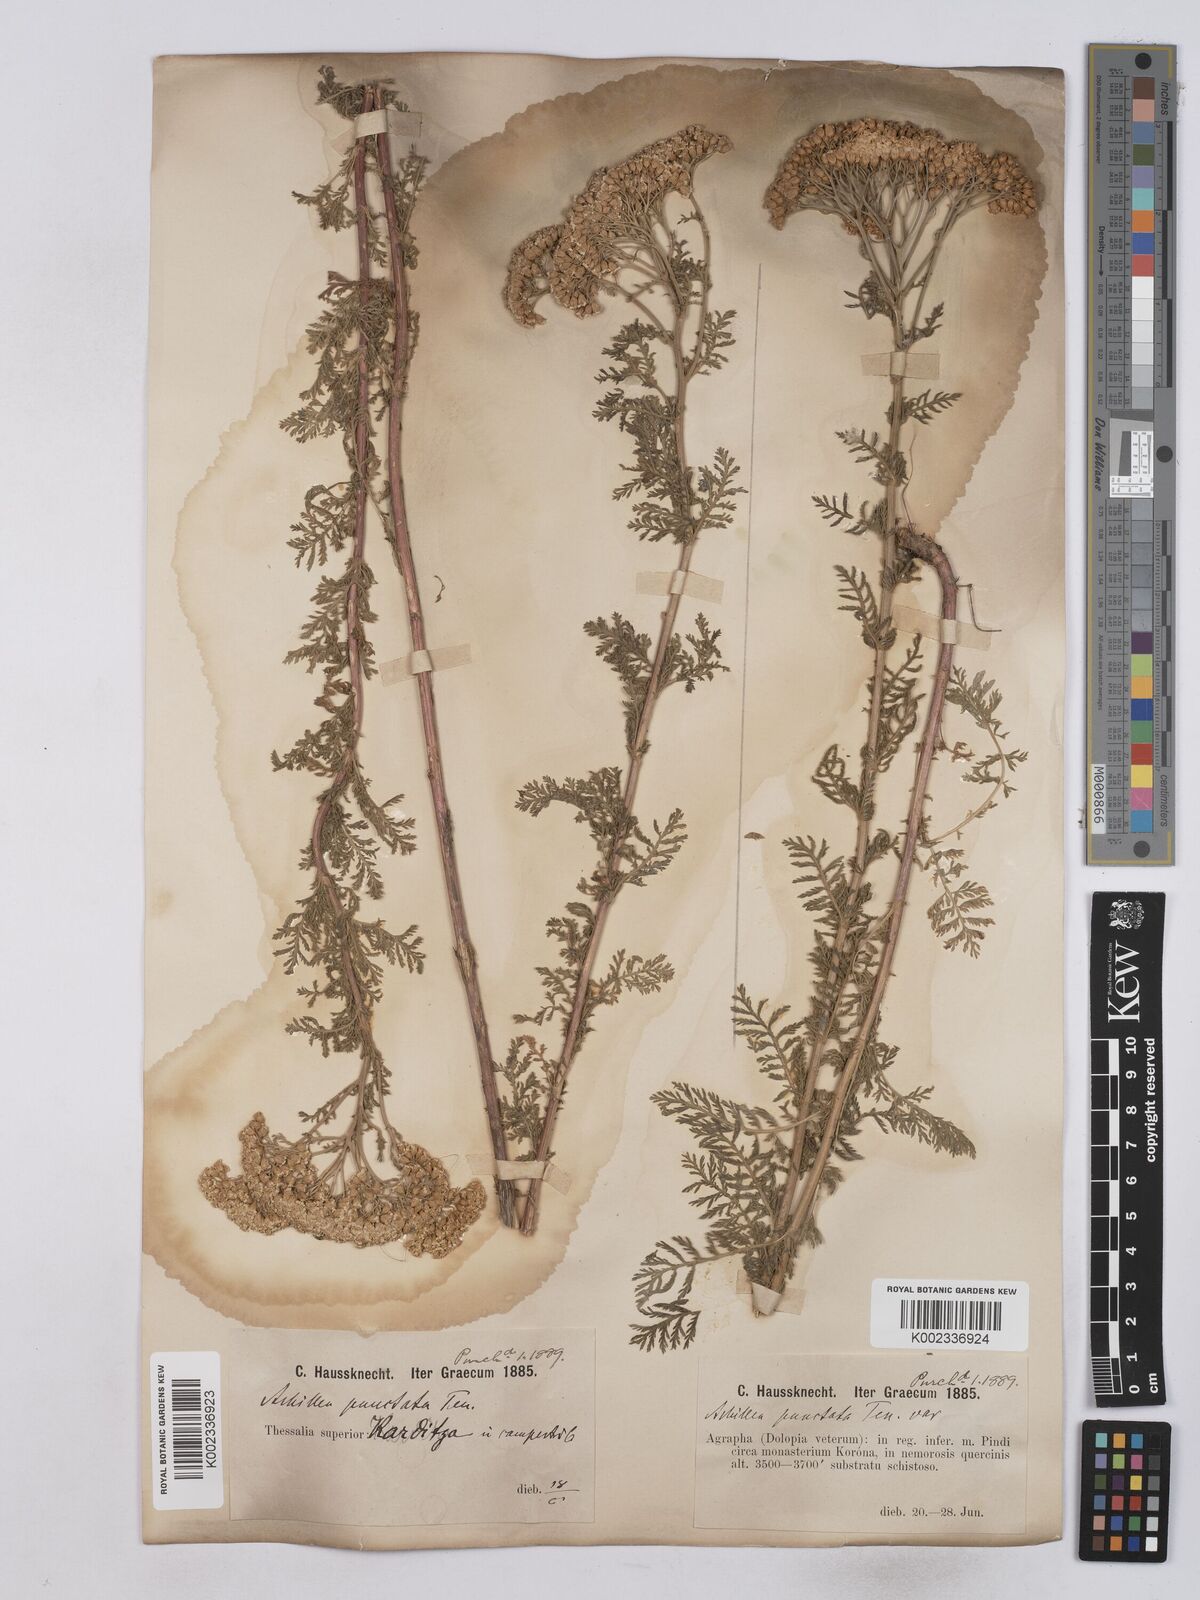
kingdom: Plantae
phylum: Tracheophyta
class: Magnoliopsida
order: Asterales
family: Asteraceae
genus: Achillea
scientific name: Achillea odorata
